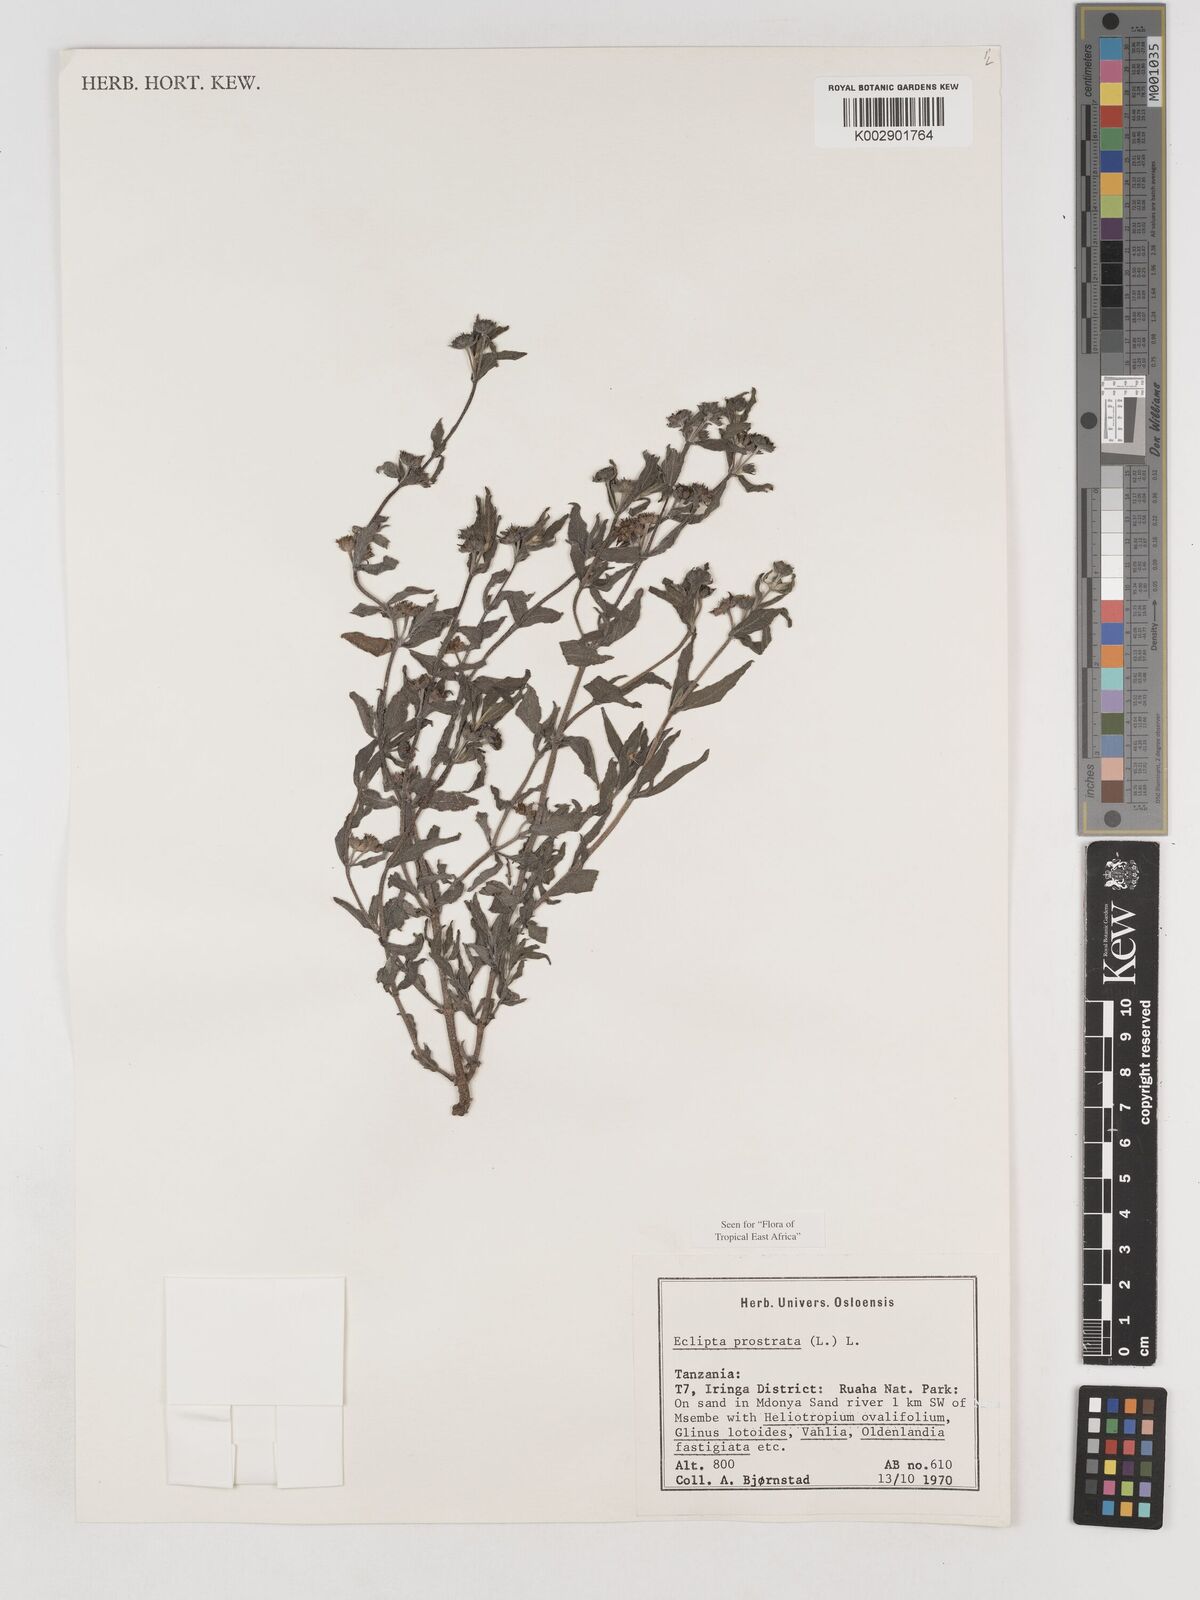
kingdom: Plantae
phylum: Tracheophyta
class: Magnoliopsida
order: Asterales
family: Asteraceae
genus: Eclipta
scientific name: Eclipta alba
